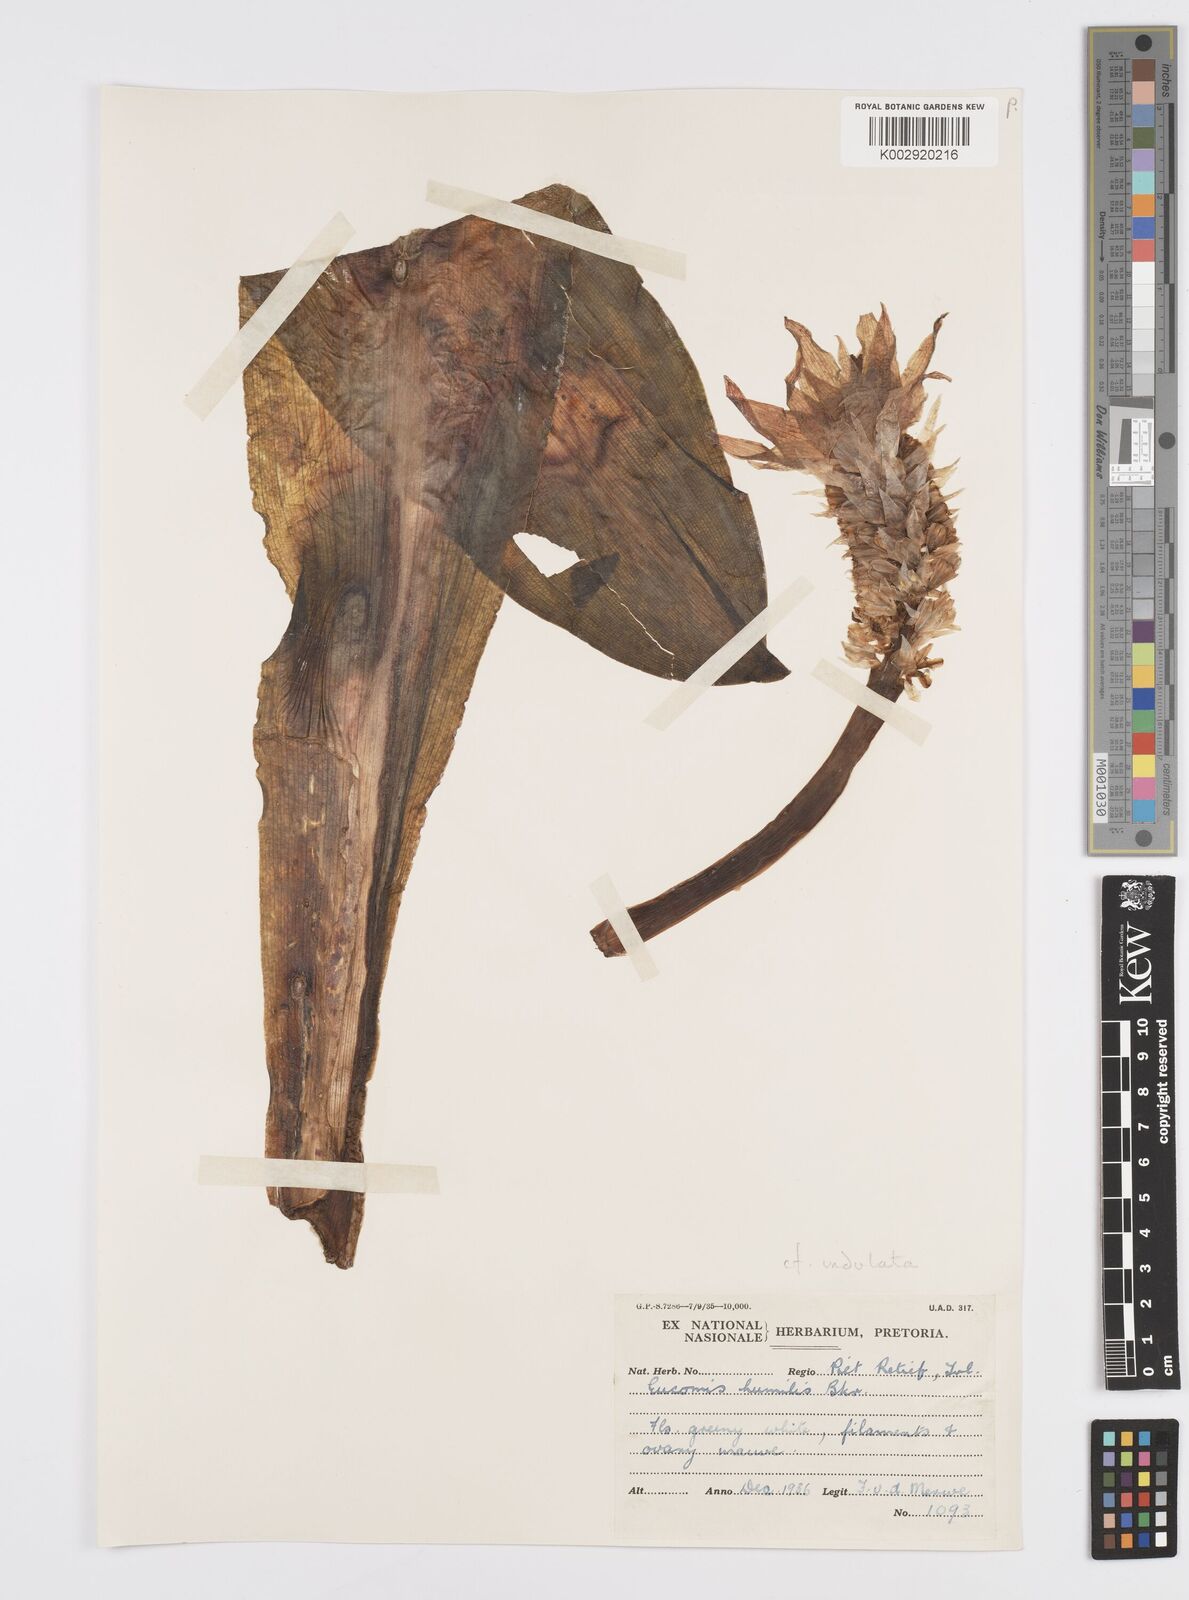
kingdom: Plantae
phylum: Tracheophyta
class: Liliopsida
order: Asparagales
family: Asparagaceae
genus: Eucomis
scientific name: Eucomis
